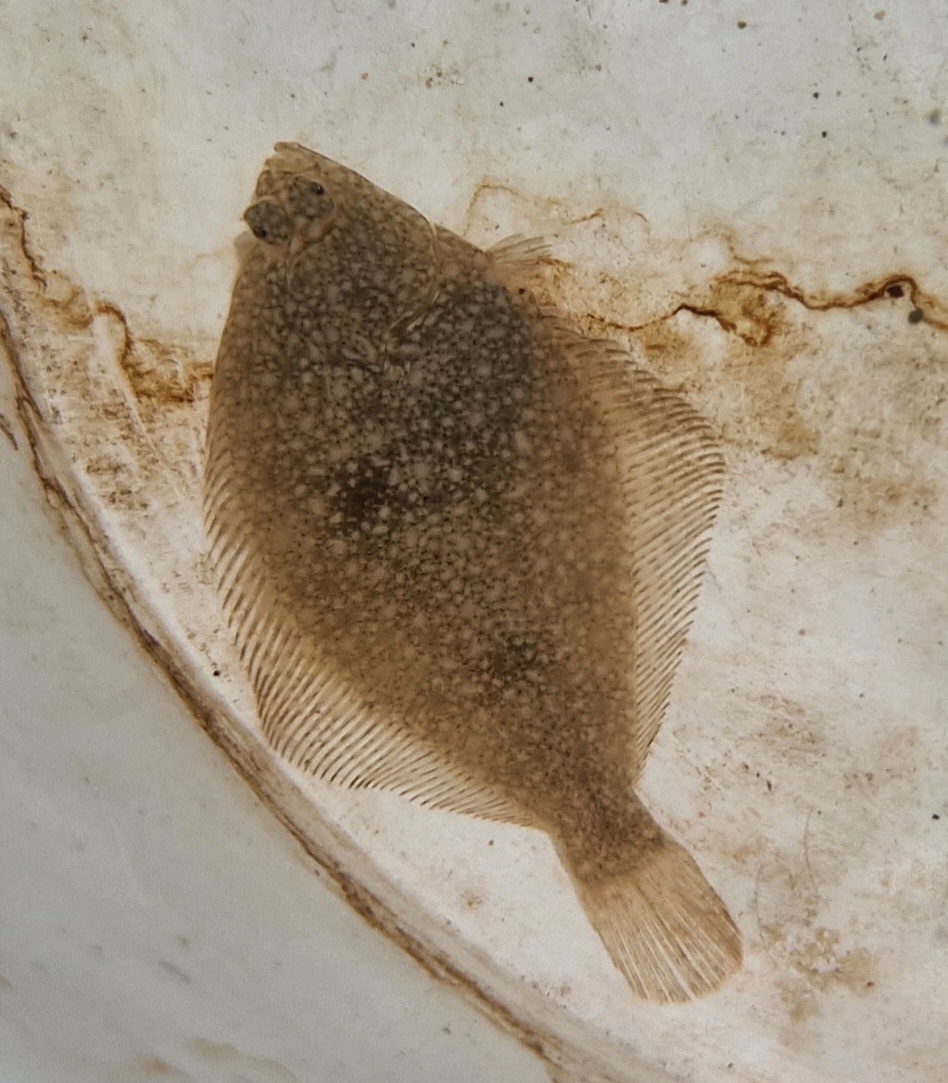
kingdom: Animalia
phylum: Chordata
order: Pleuronectiformes
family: Pleuronectidae
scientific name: Pleuronectidae
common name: Rødspættefamilien
